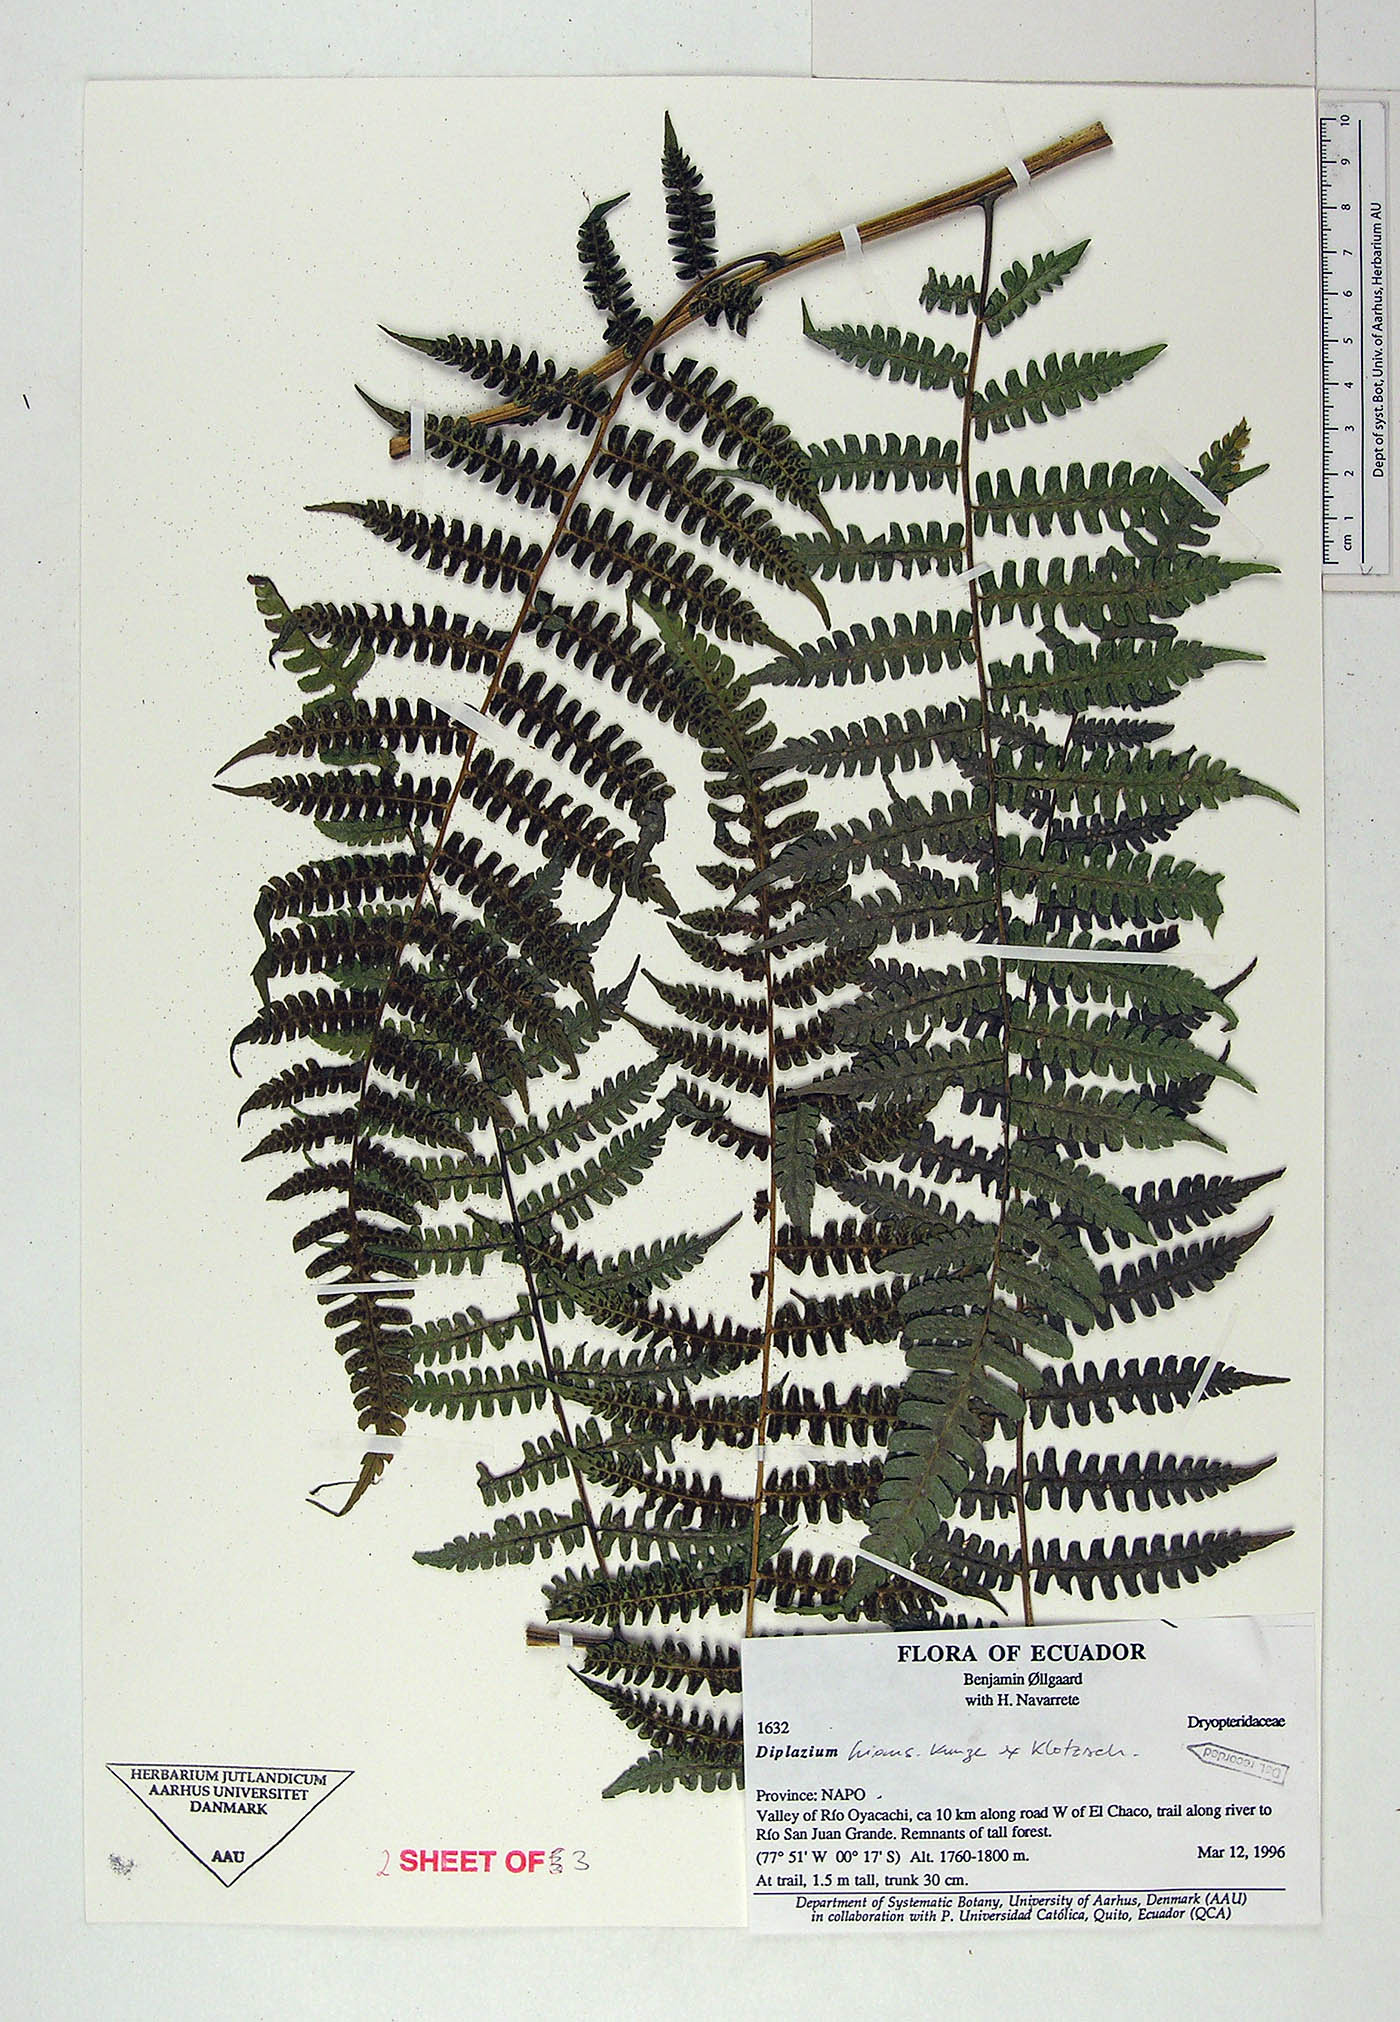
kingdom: Plantae
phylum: Tracheophyta
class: Polypodiopsida
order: Polypodiales
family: Athyriaceae
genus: Diplazium
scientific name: Diplazium hians
